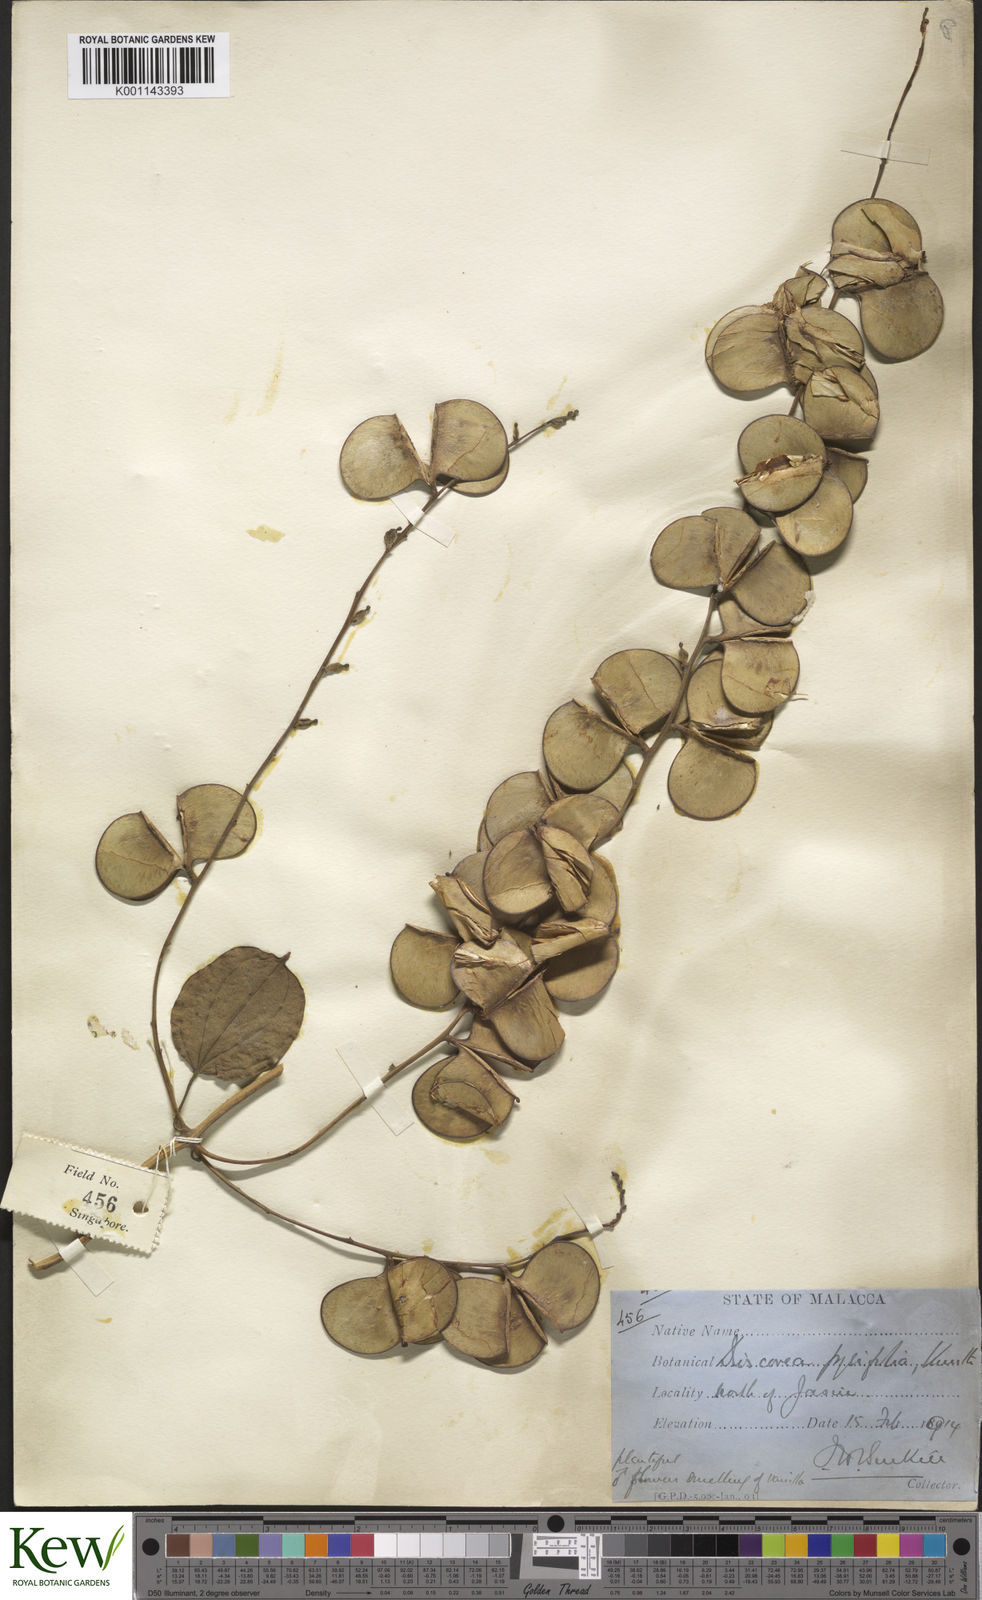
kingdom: Plantae
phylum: Tracheophyta
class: Liliopsida
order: Dioscoreales
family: Dioscoreaceae
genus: Dioscorea
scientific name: Dioscorea pyrifolia
